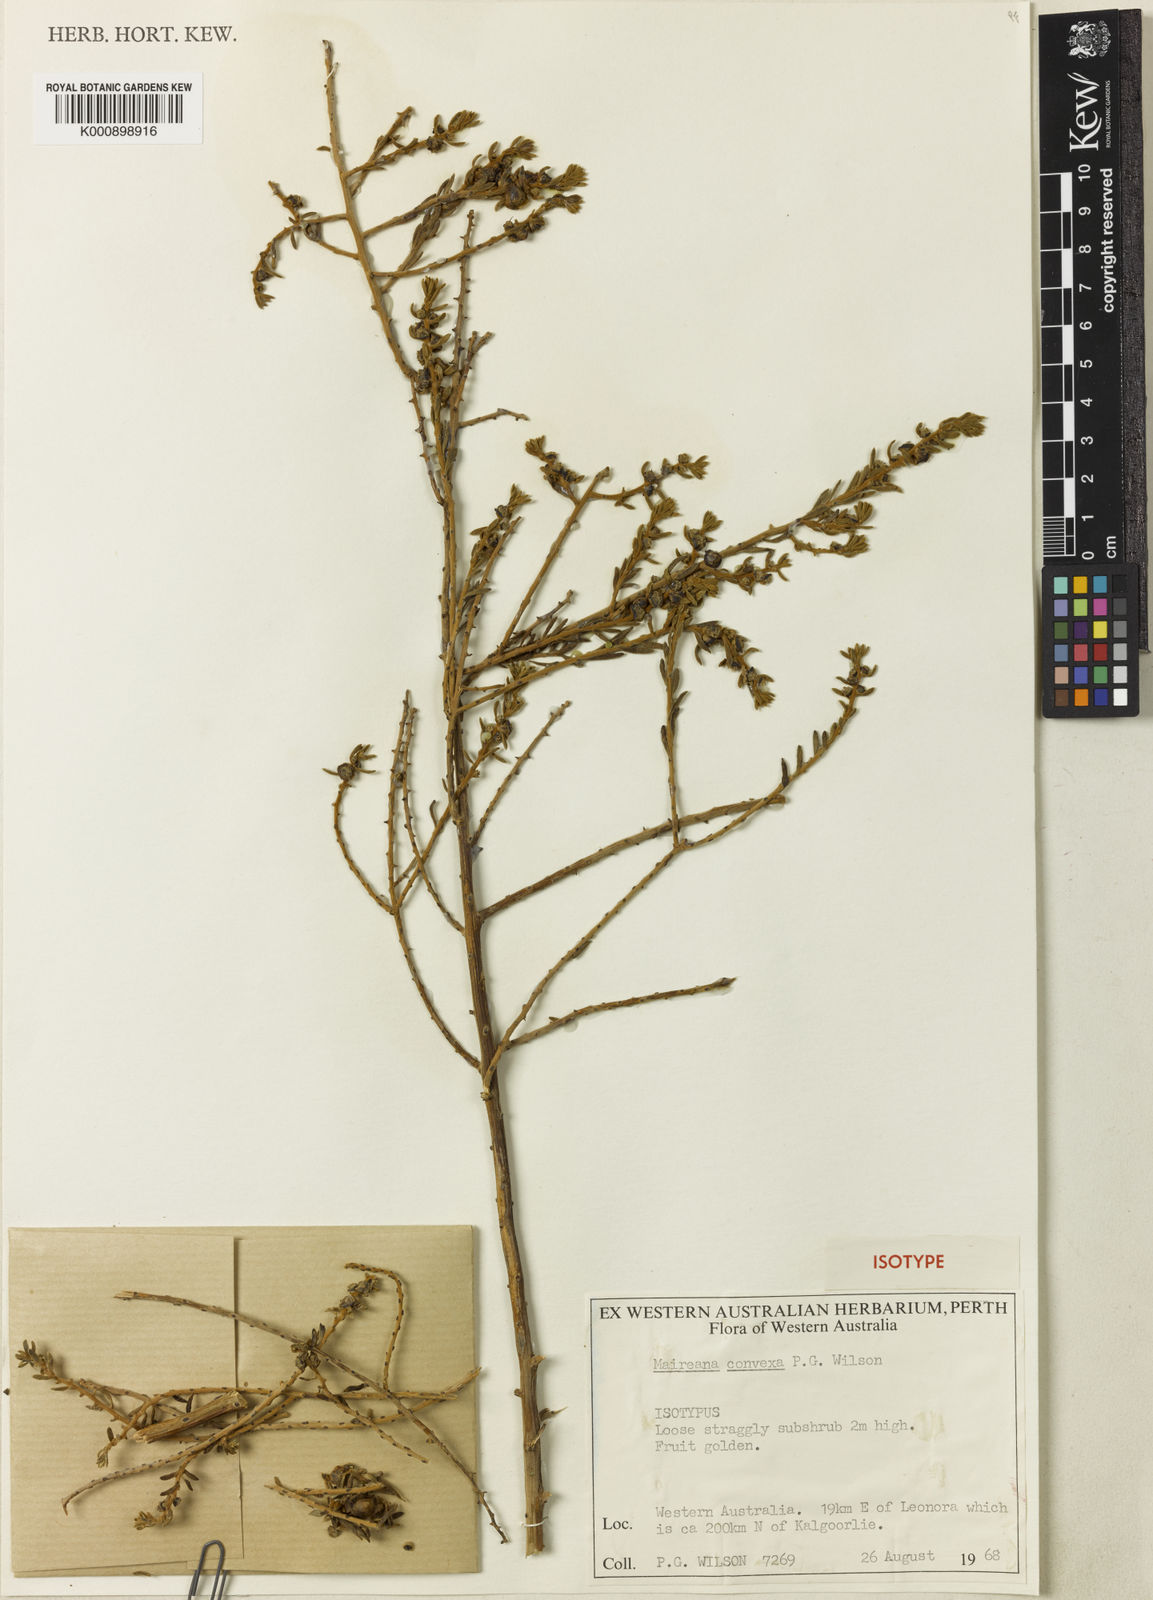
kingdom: Plantae
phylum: Tracheophyta
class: Magnoliopsida
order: Caryophyllales
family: Amaranthaceae
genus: Maireana
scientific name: Maireana convexa
